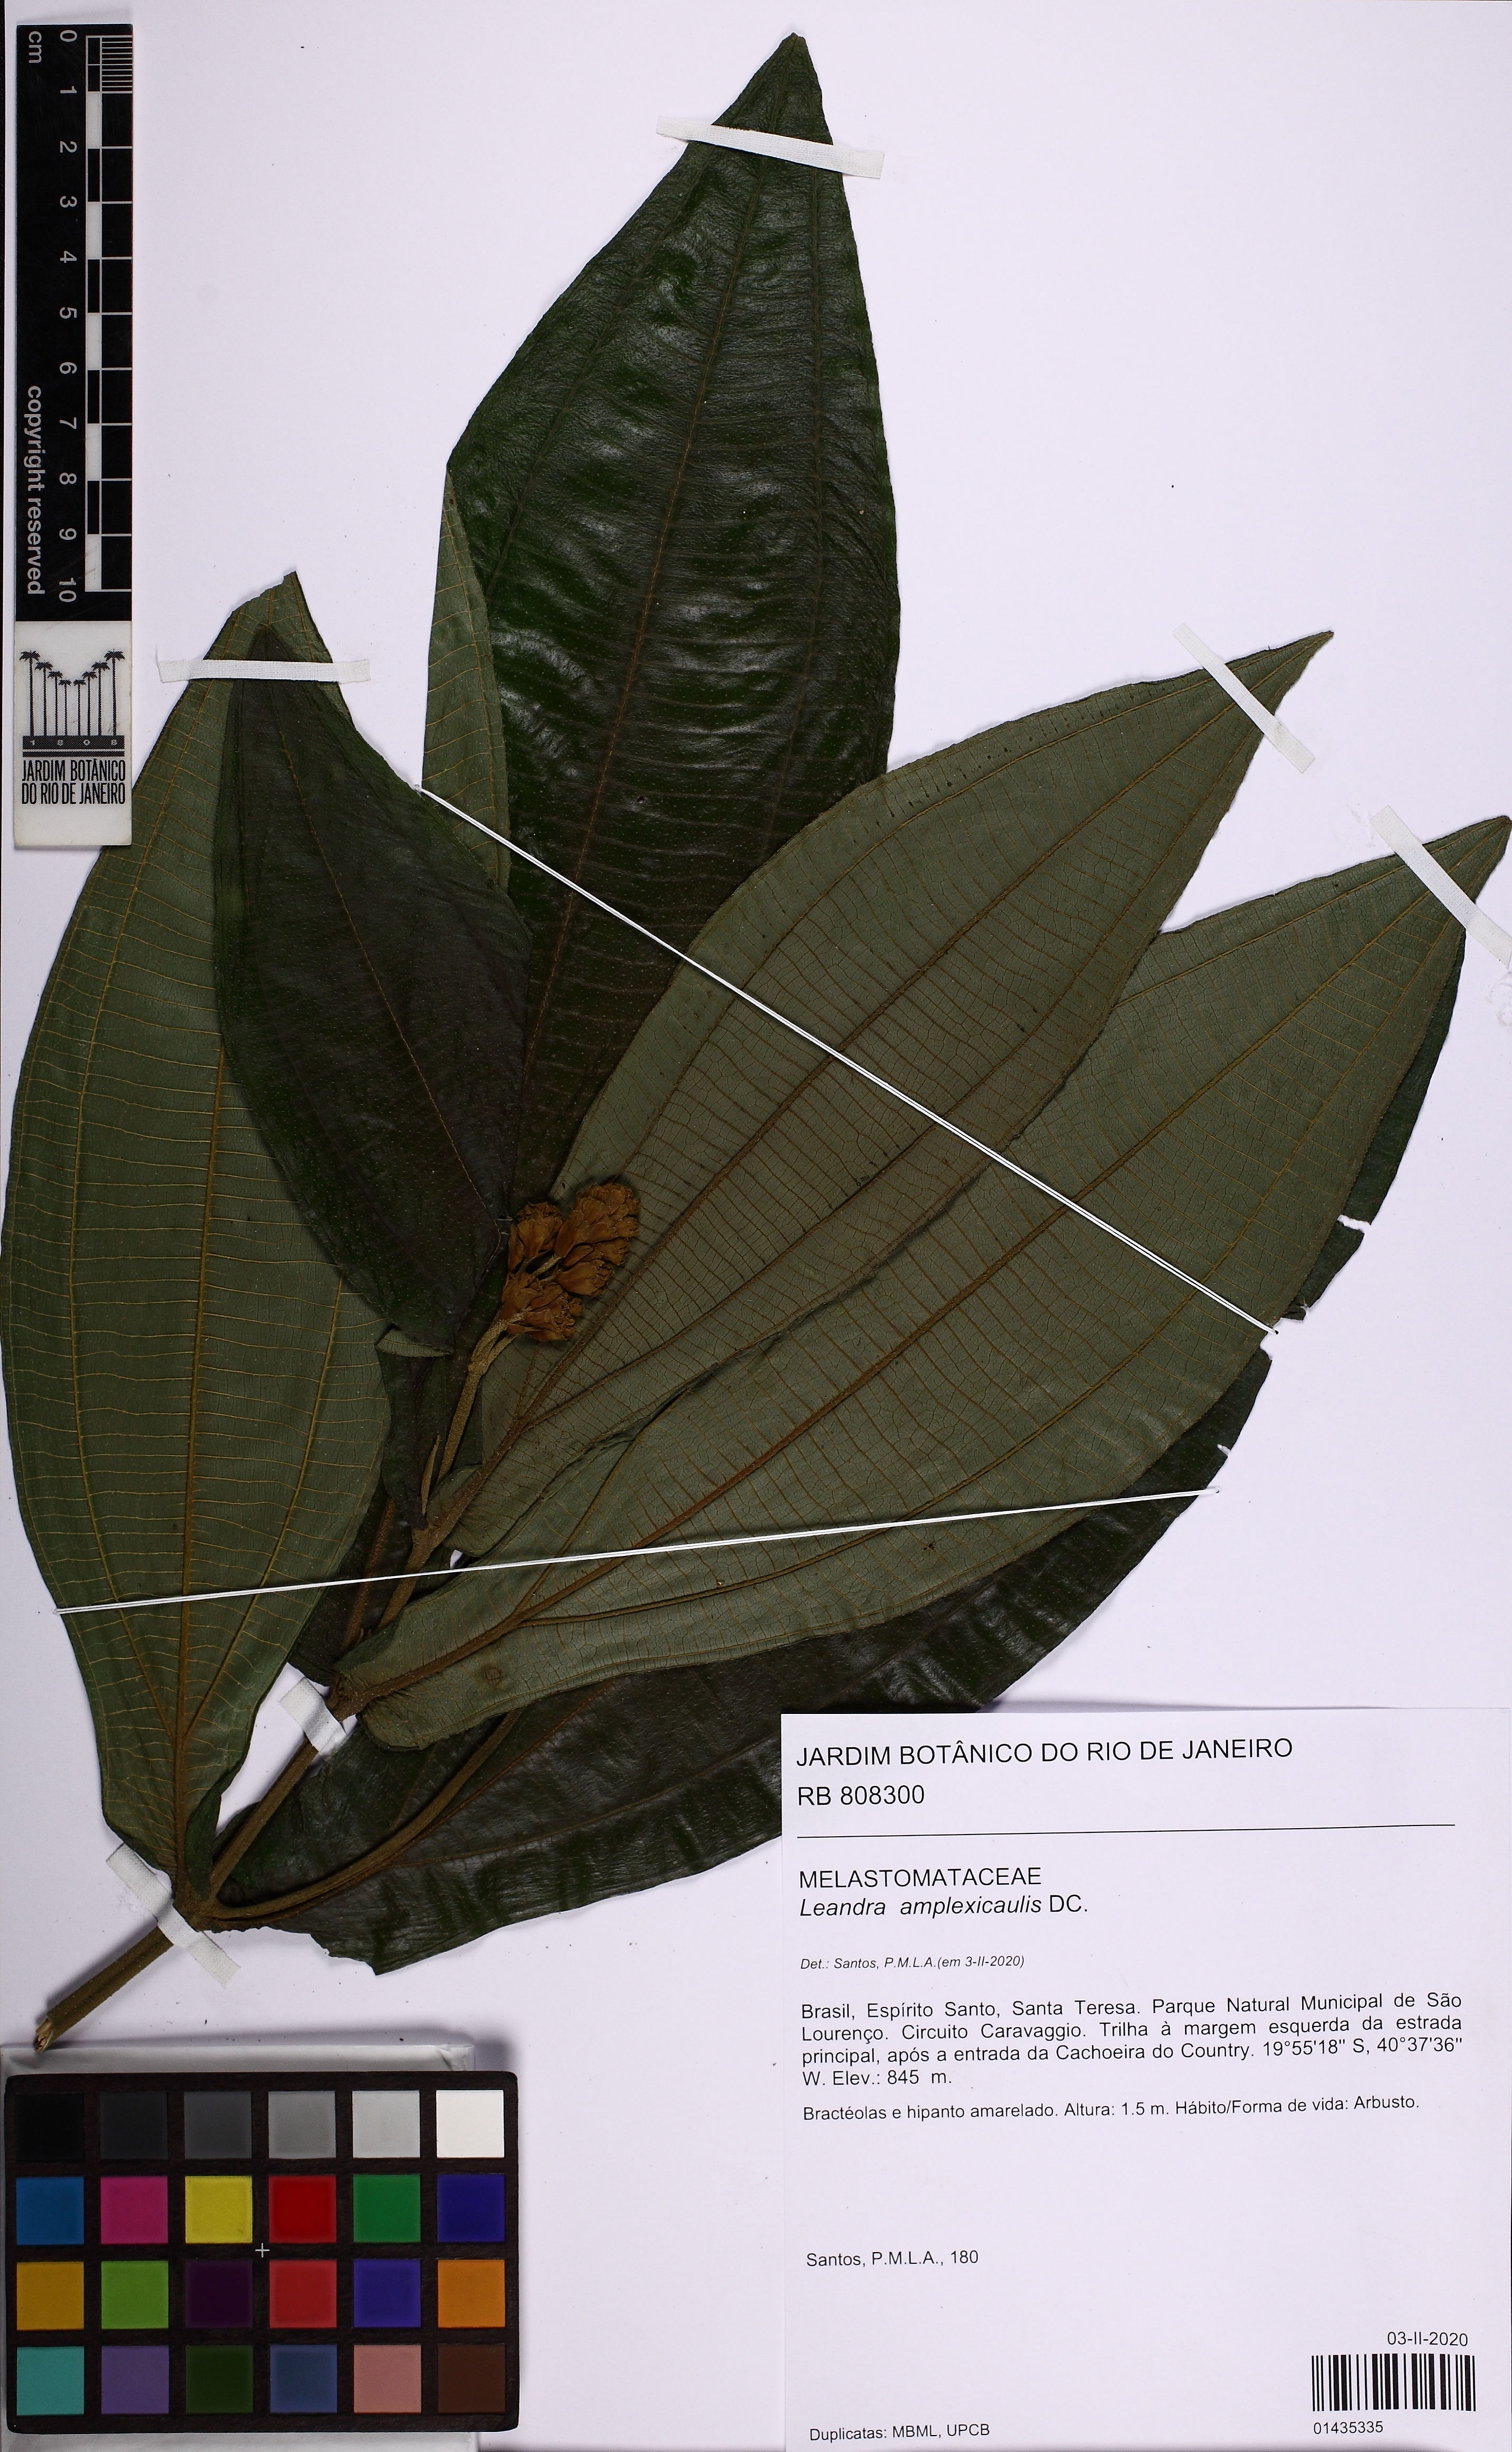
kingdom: Plantae
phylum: Tracheophyta
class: Magnoliopsida
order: Myrtales
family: Melastomataceae
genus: Miconia
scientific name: Miconia pectinata
